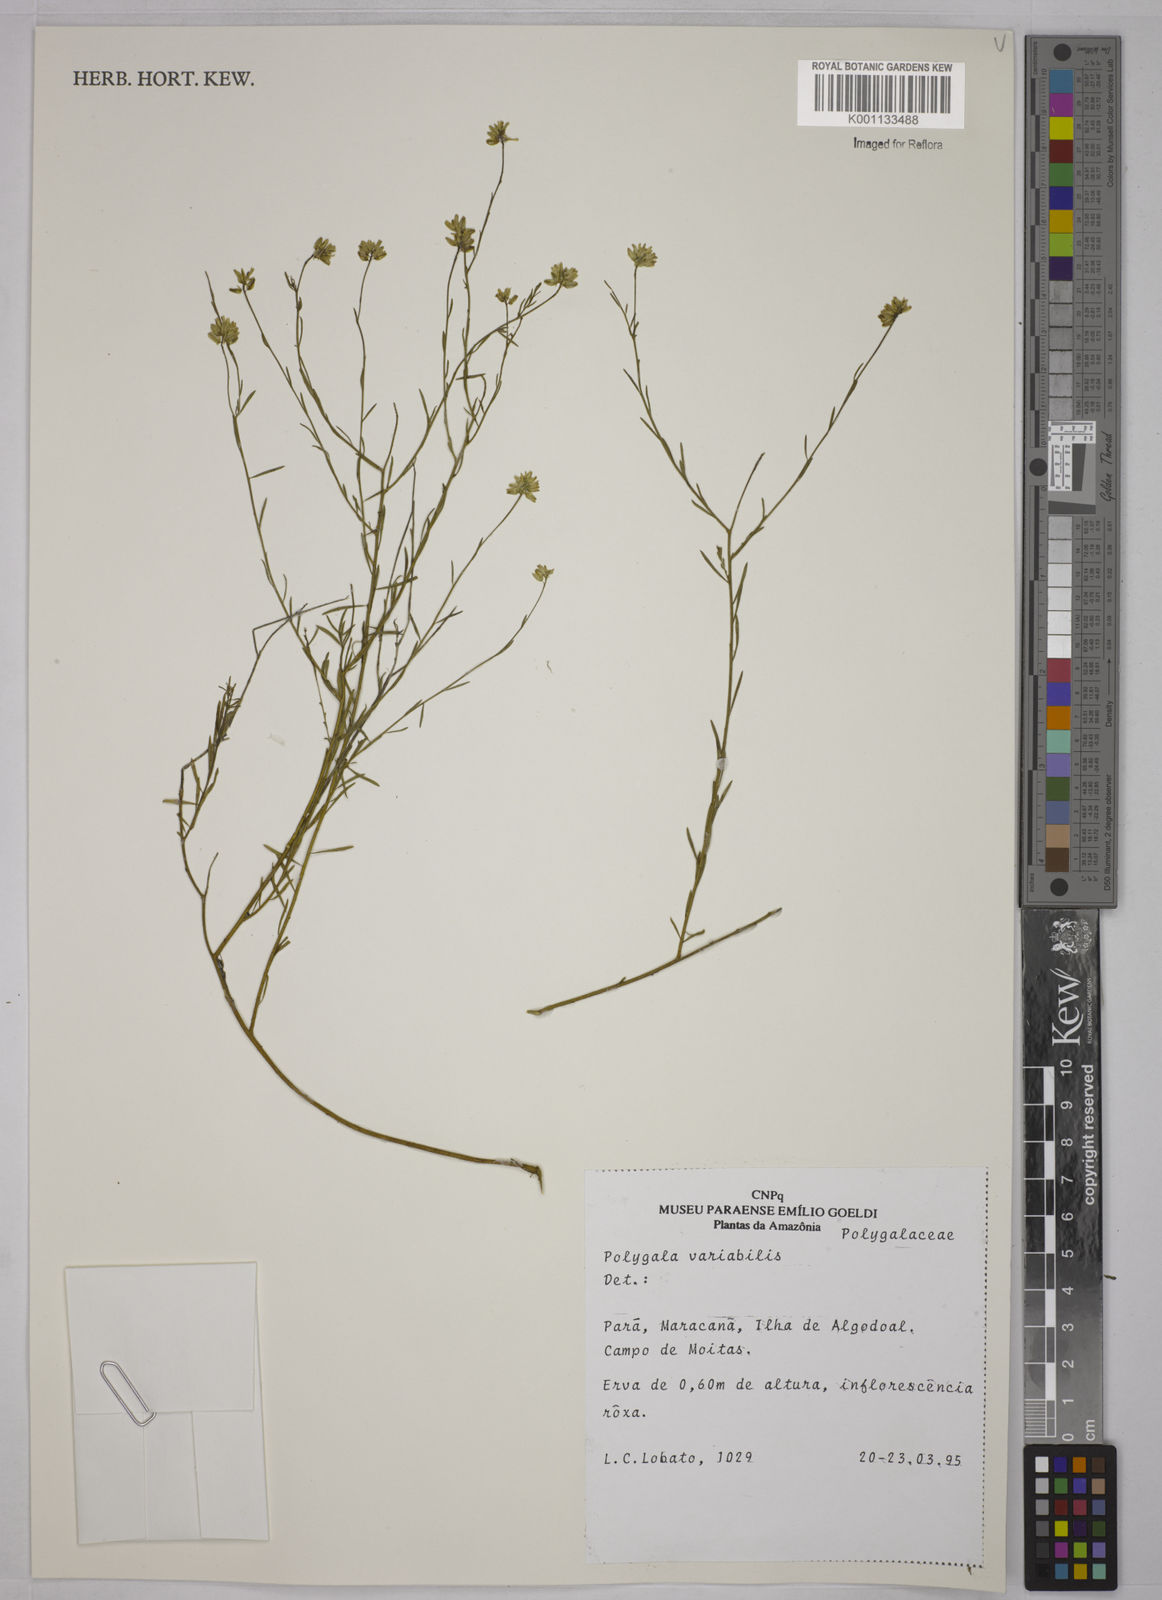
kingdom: Plantae
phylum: Tracheophyta
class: Magnoliopsida
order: Fabales
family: Polygalaceae
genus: Polygala
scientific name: Polygala trichosperma
